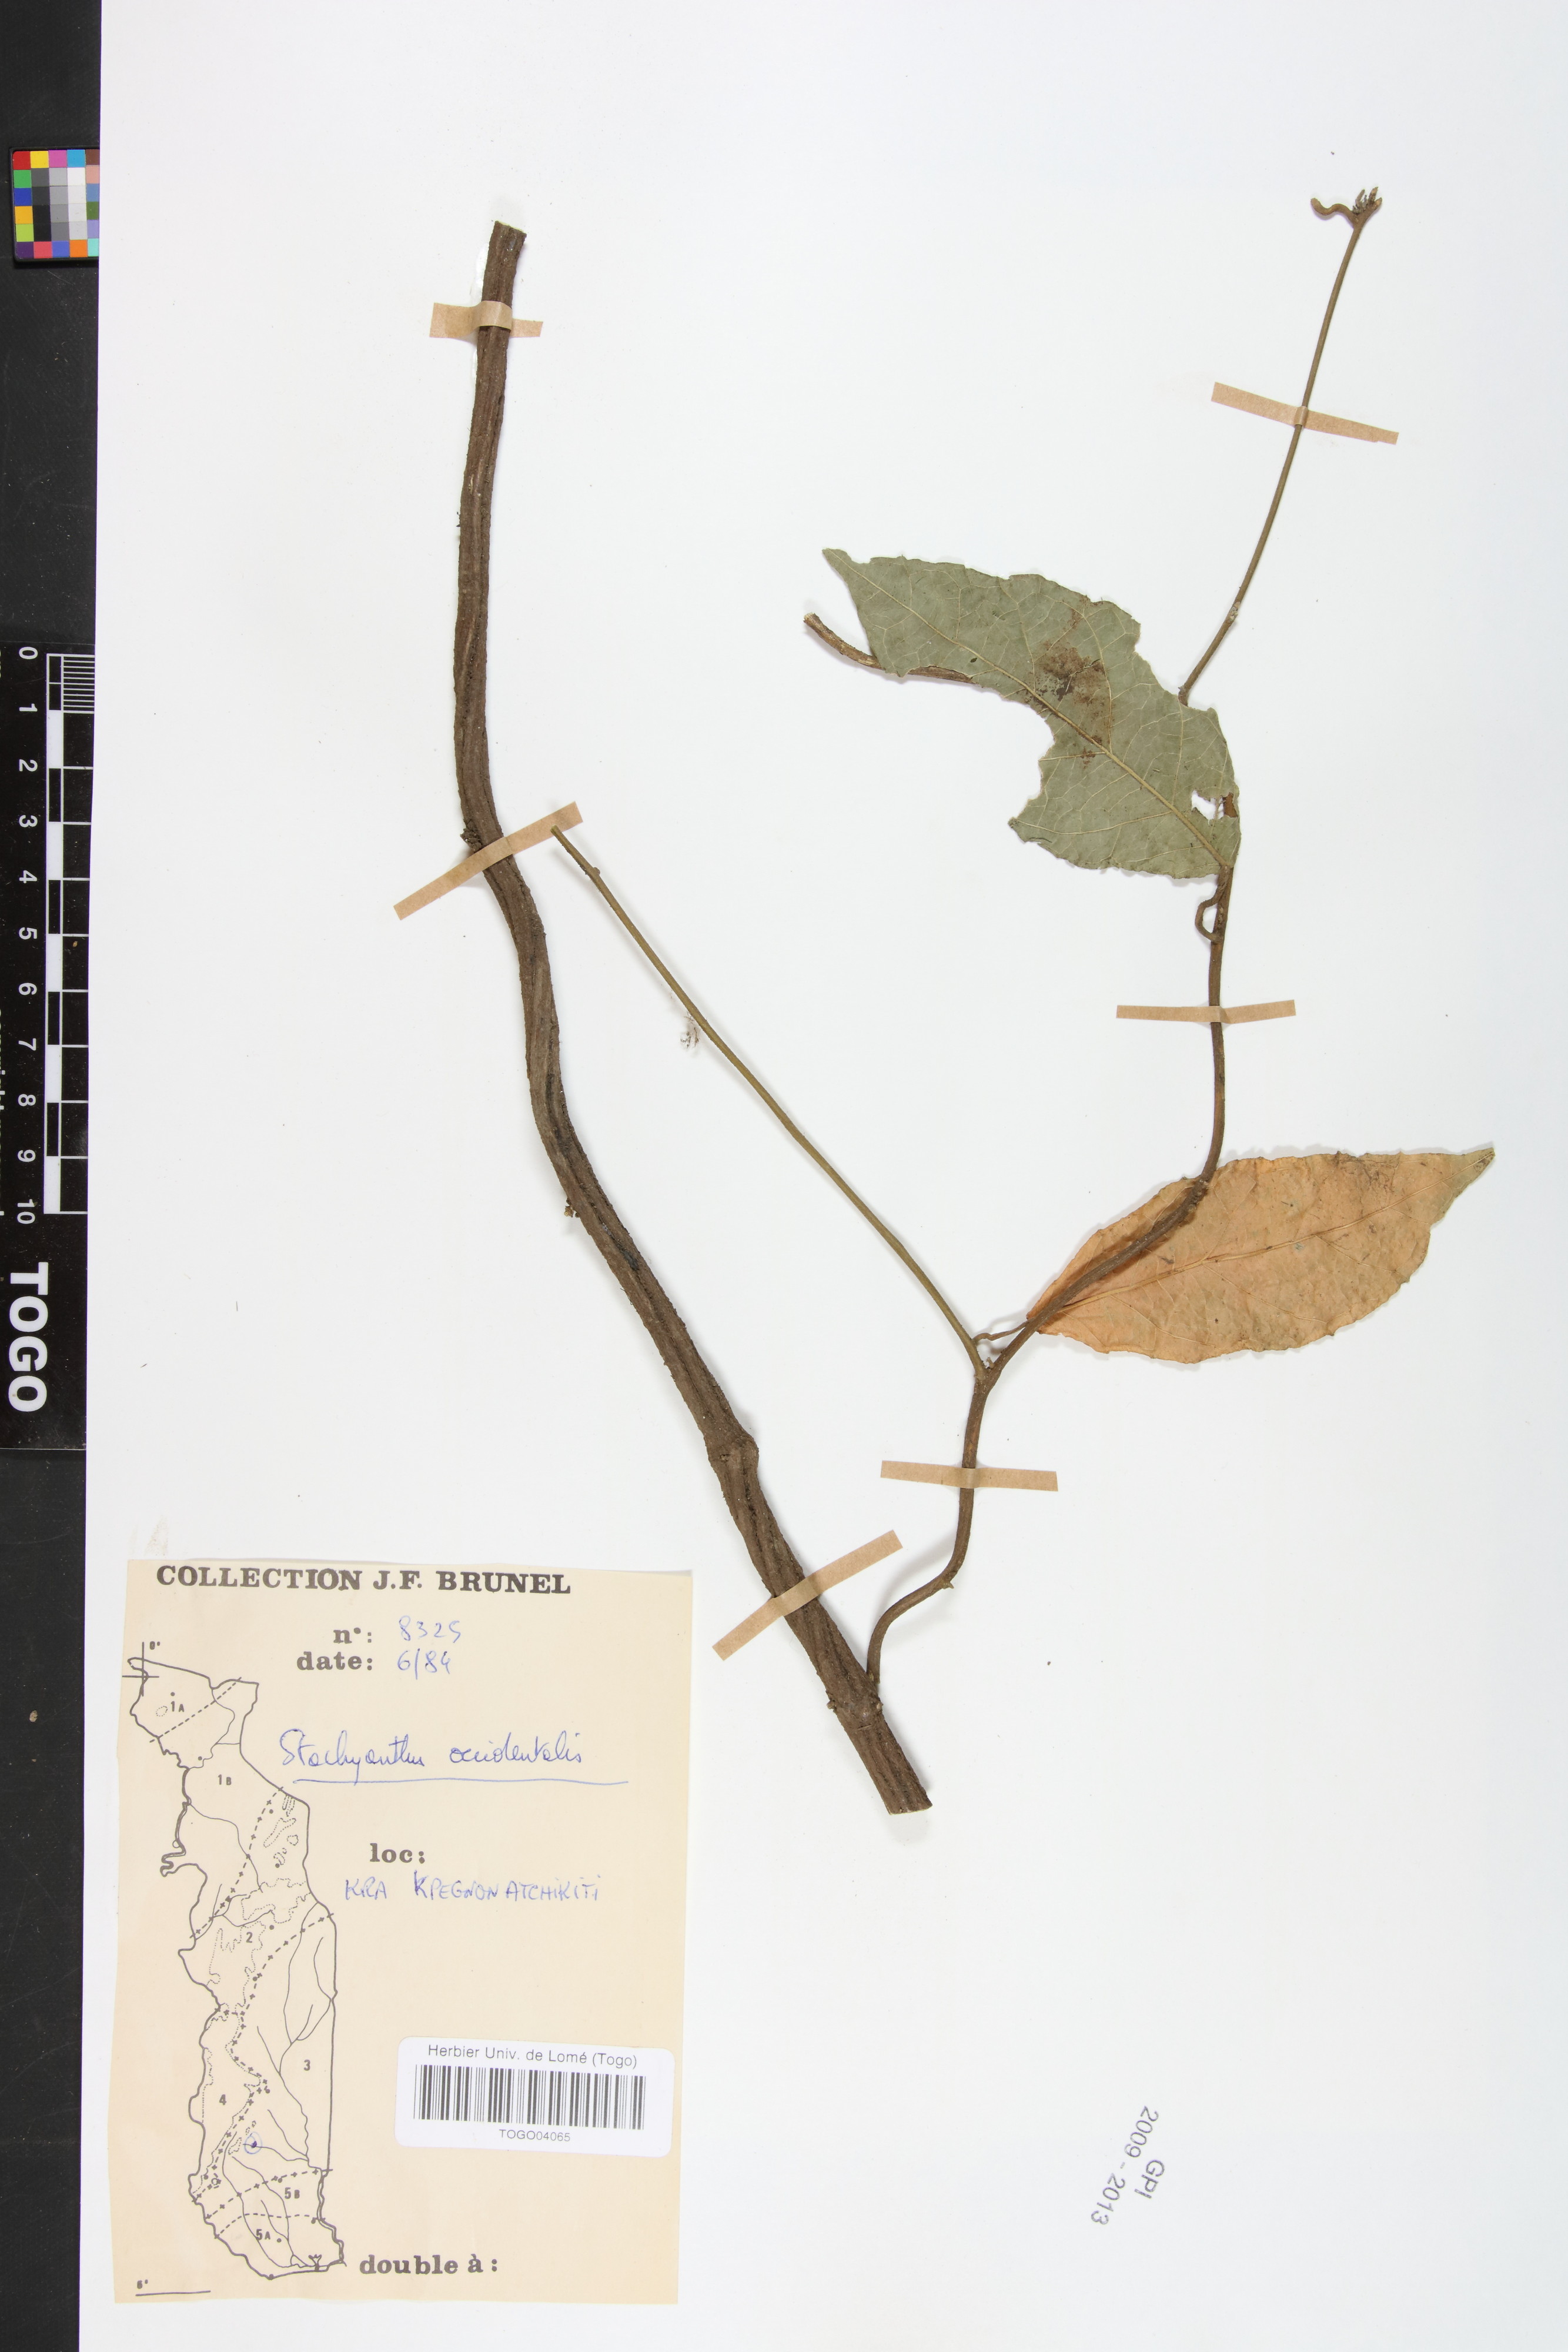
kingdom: Plantae
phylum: Tracheophyta
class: Magnoliopsida
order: Icacinales
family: Icacinaceae
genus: Stachyanthus
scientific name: Stachyanthus occidentalis
